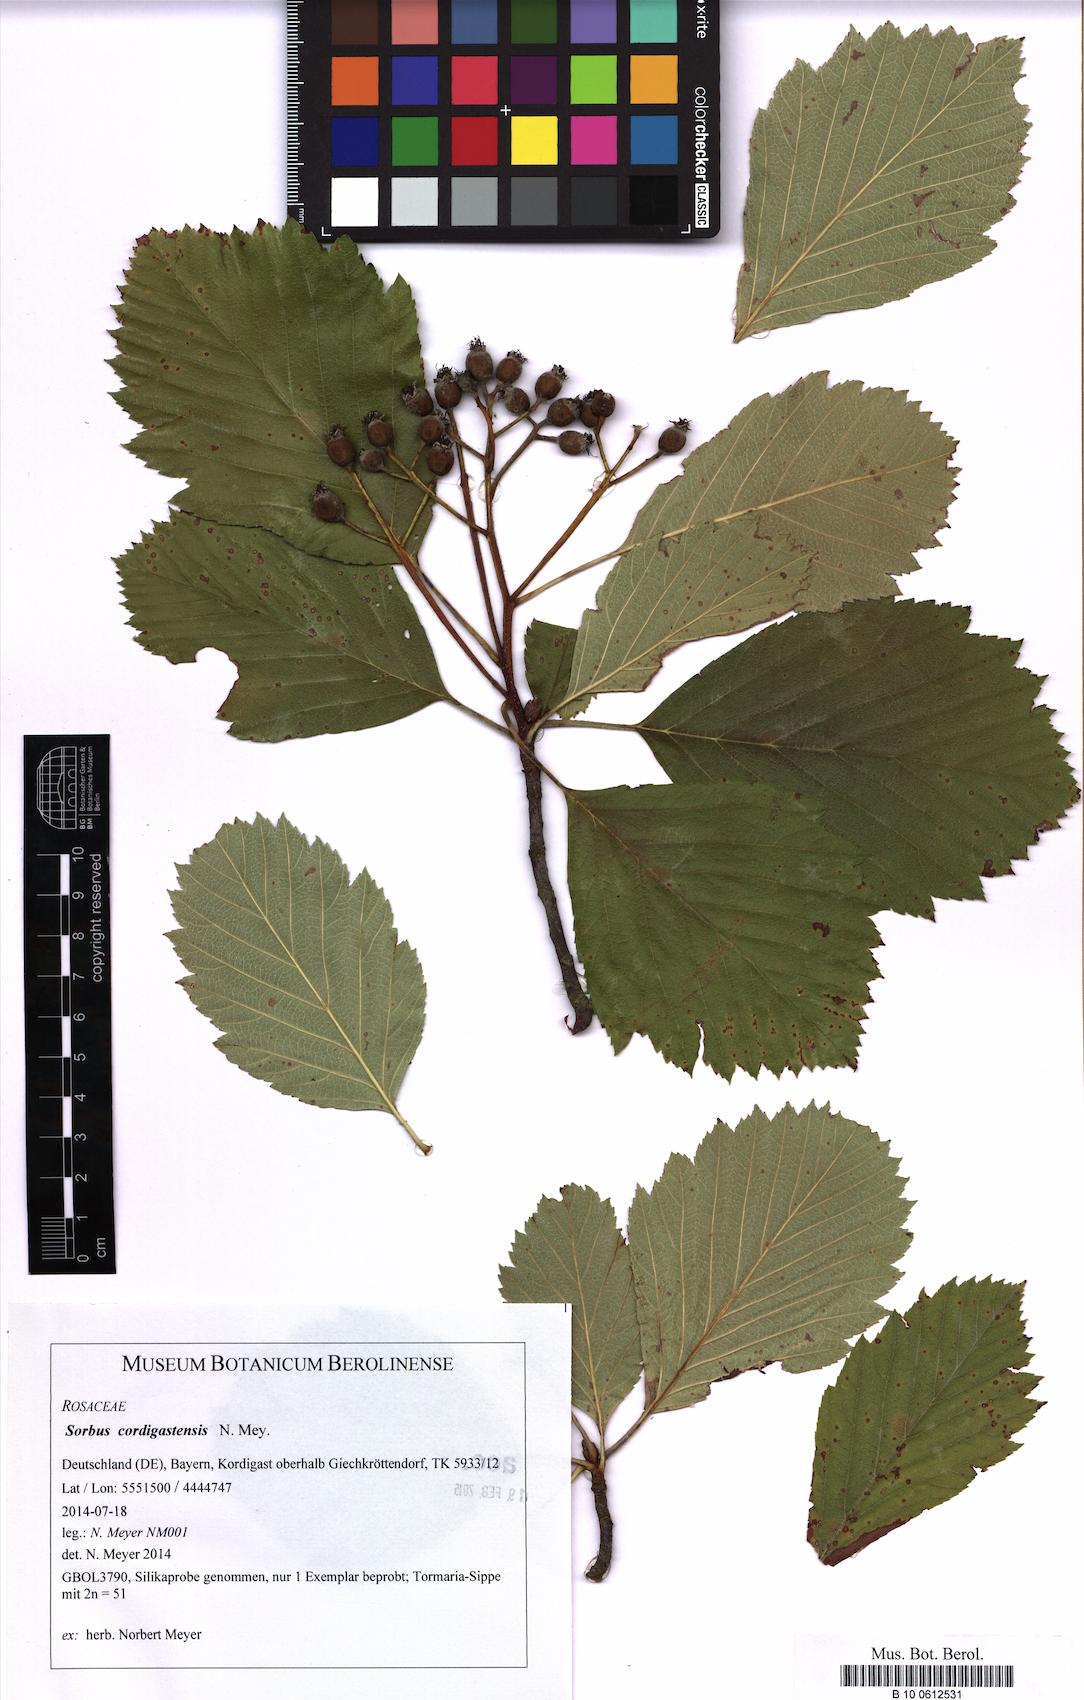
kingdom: Plantae
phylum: Tracheophyta
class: Magnoliopsida
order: Rosales
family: Rosaceae
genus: Karpatiosorbus
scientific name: Karpatiosorbus cordigastensis
